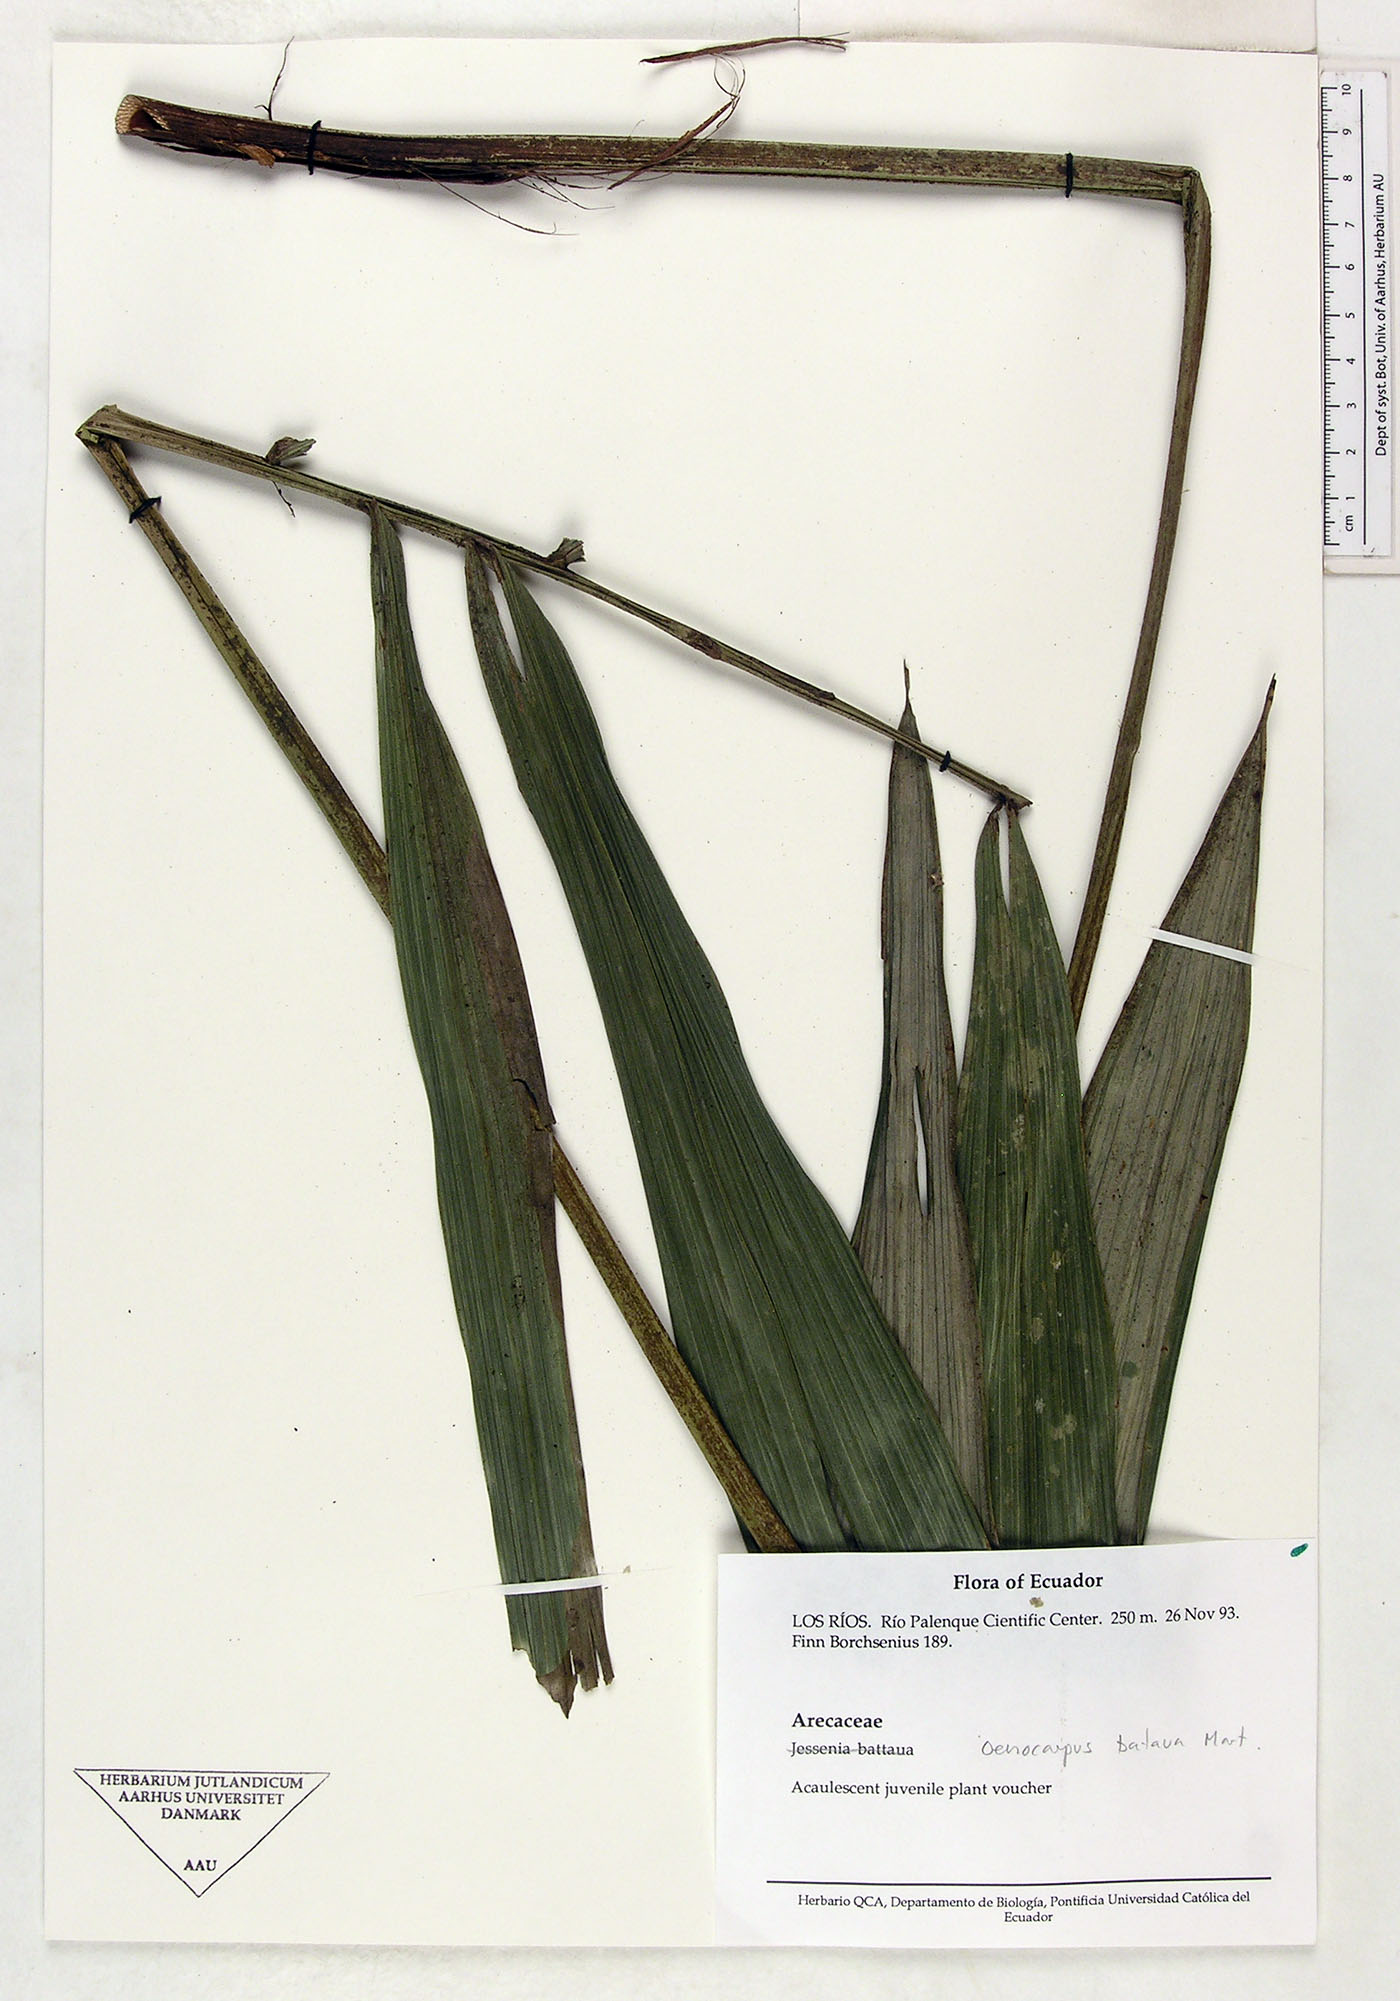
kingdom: Plantae
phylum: Tracheophyta
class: Liliopsida
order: Arecales
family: Arecaceae
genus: Oenocarpus
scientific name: Oenocarpus bataua
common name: Bataua palm
